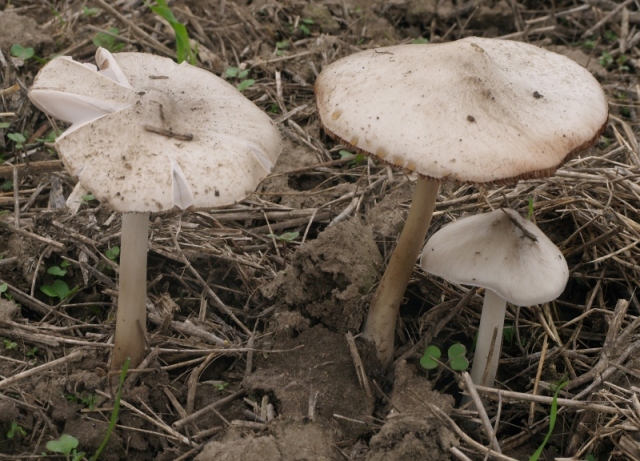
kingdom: Fungi
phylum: Basidiomycota
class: Agaricomycetes
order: Agaricales
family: Pluteaceae
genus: Volvopluteus
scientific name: Volvopluteus gloiocephalus
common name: høj posesvamp
